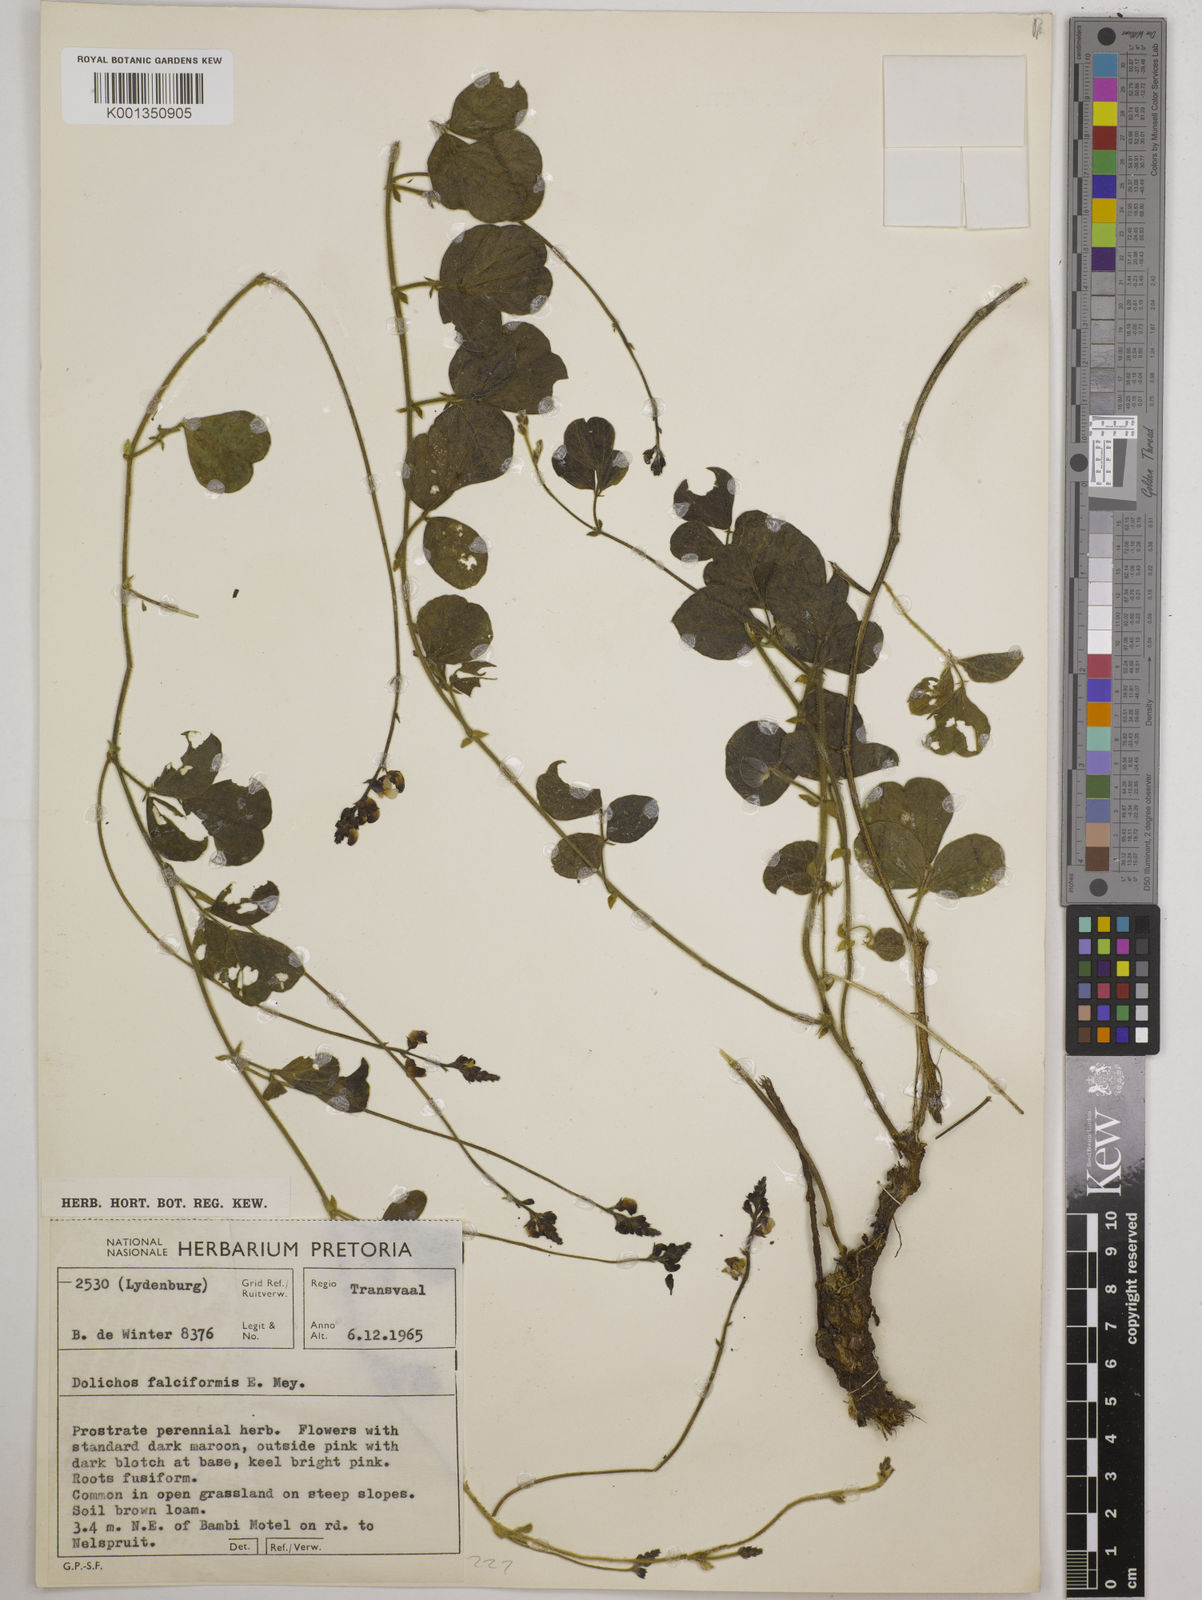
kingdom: Plantae
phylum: Tracheophyta
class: Magnoliopsida
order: Fabales
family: Fabaceae
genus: Dolichos
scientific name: Dolichos falciformis
